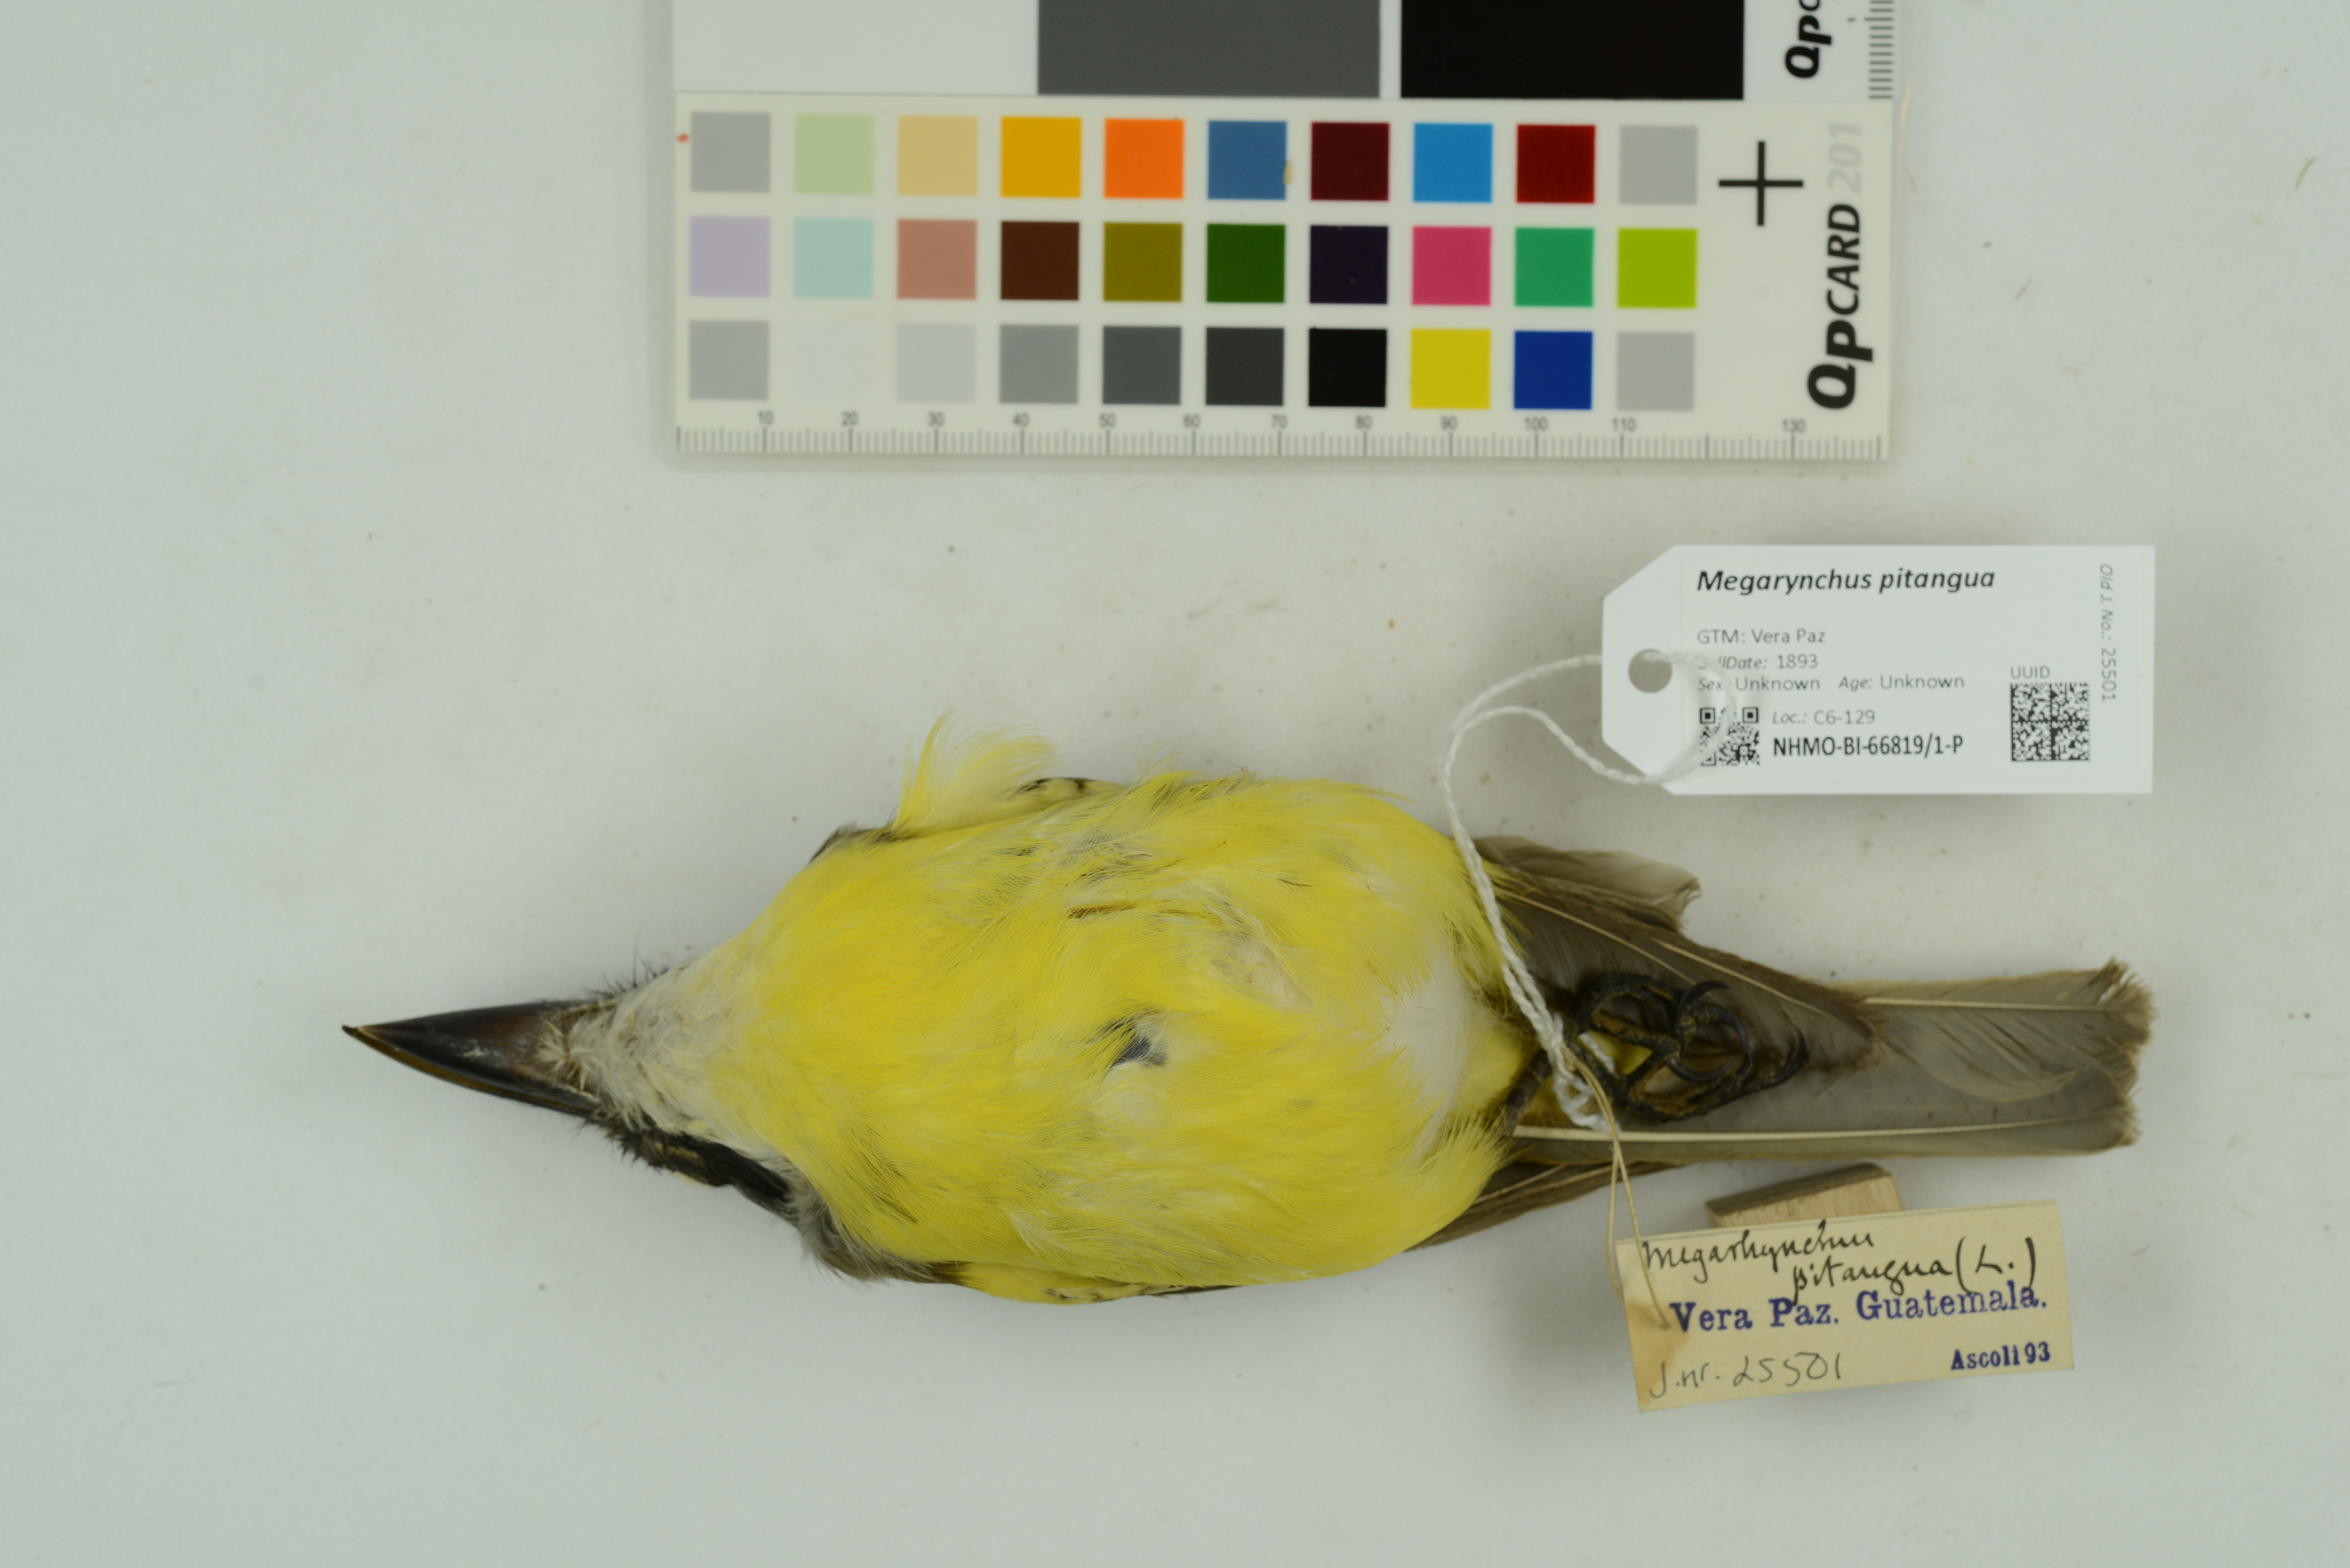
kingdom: Animalia
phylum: Chordata
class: Aves
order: Passeriformes
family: Tyrannidae
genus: Megarynchus
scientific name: Megarynchus pitangua
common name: Boat-billed flycatcher
